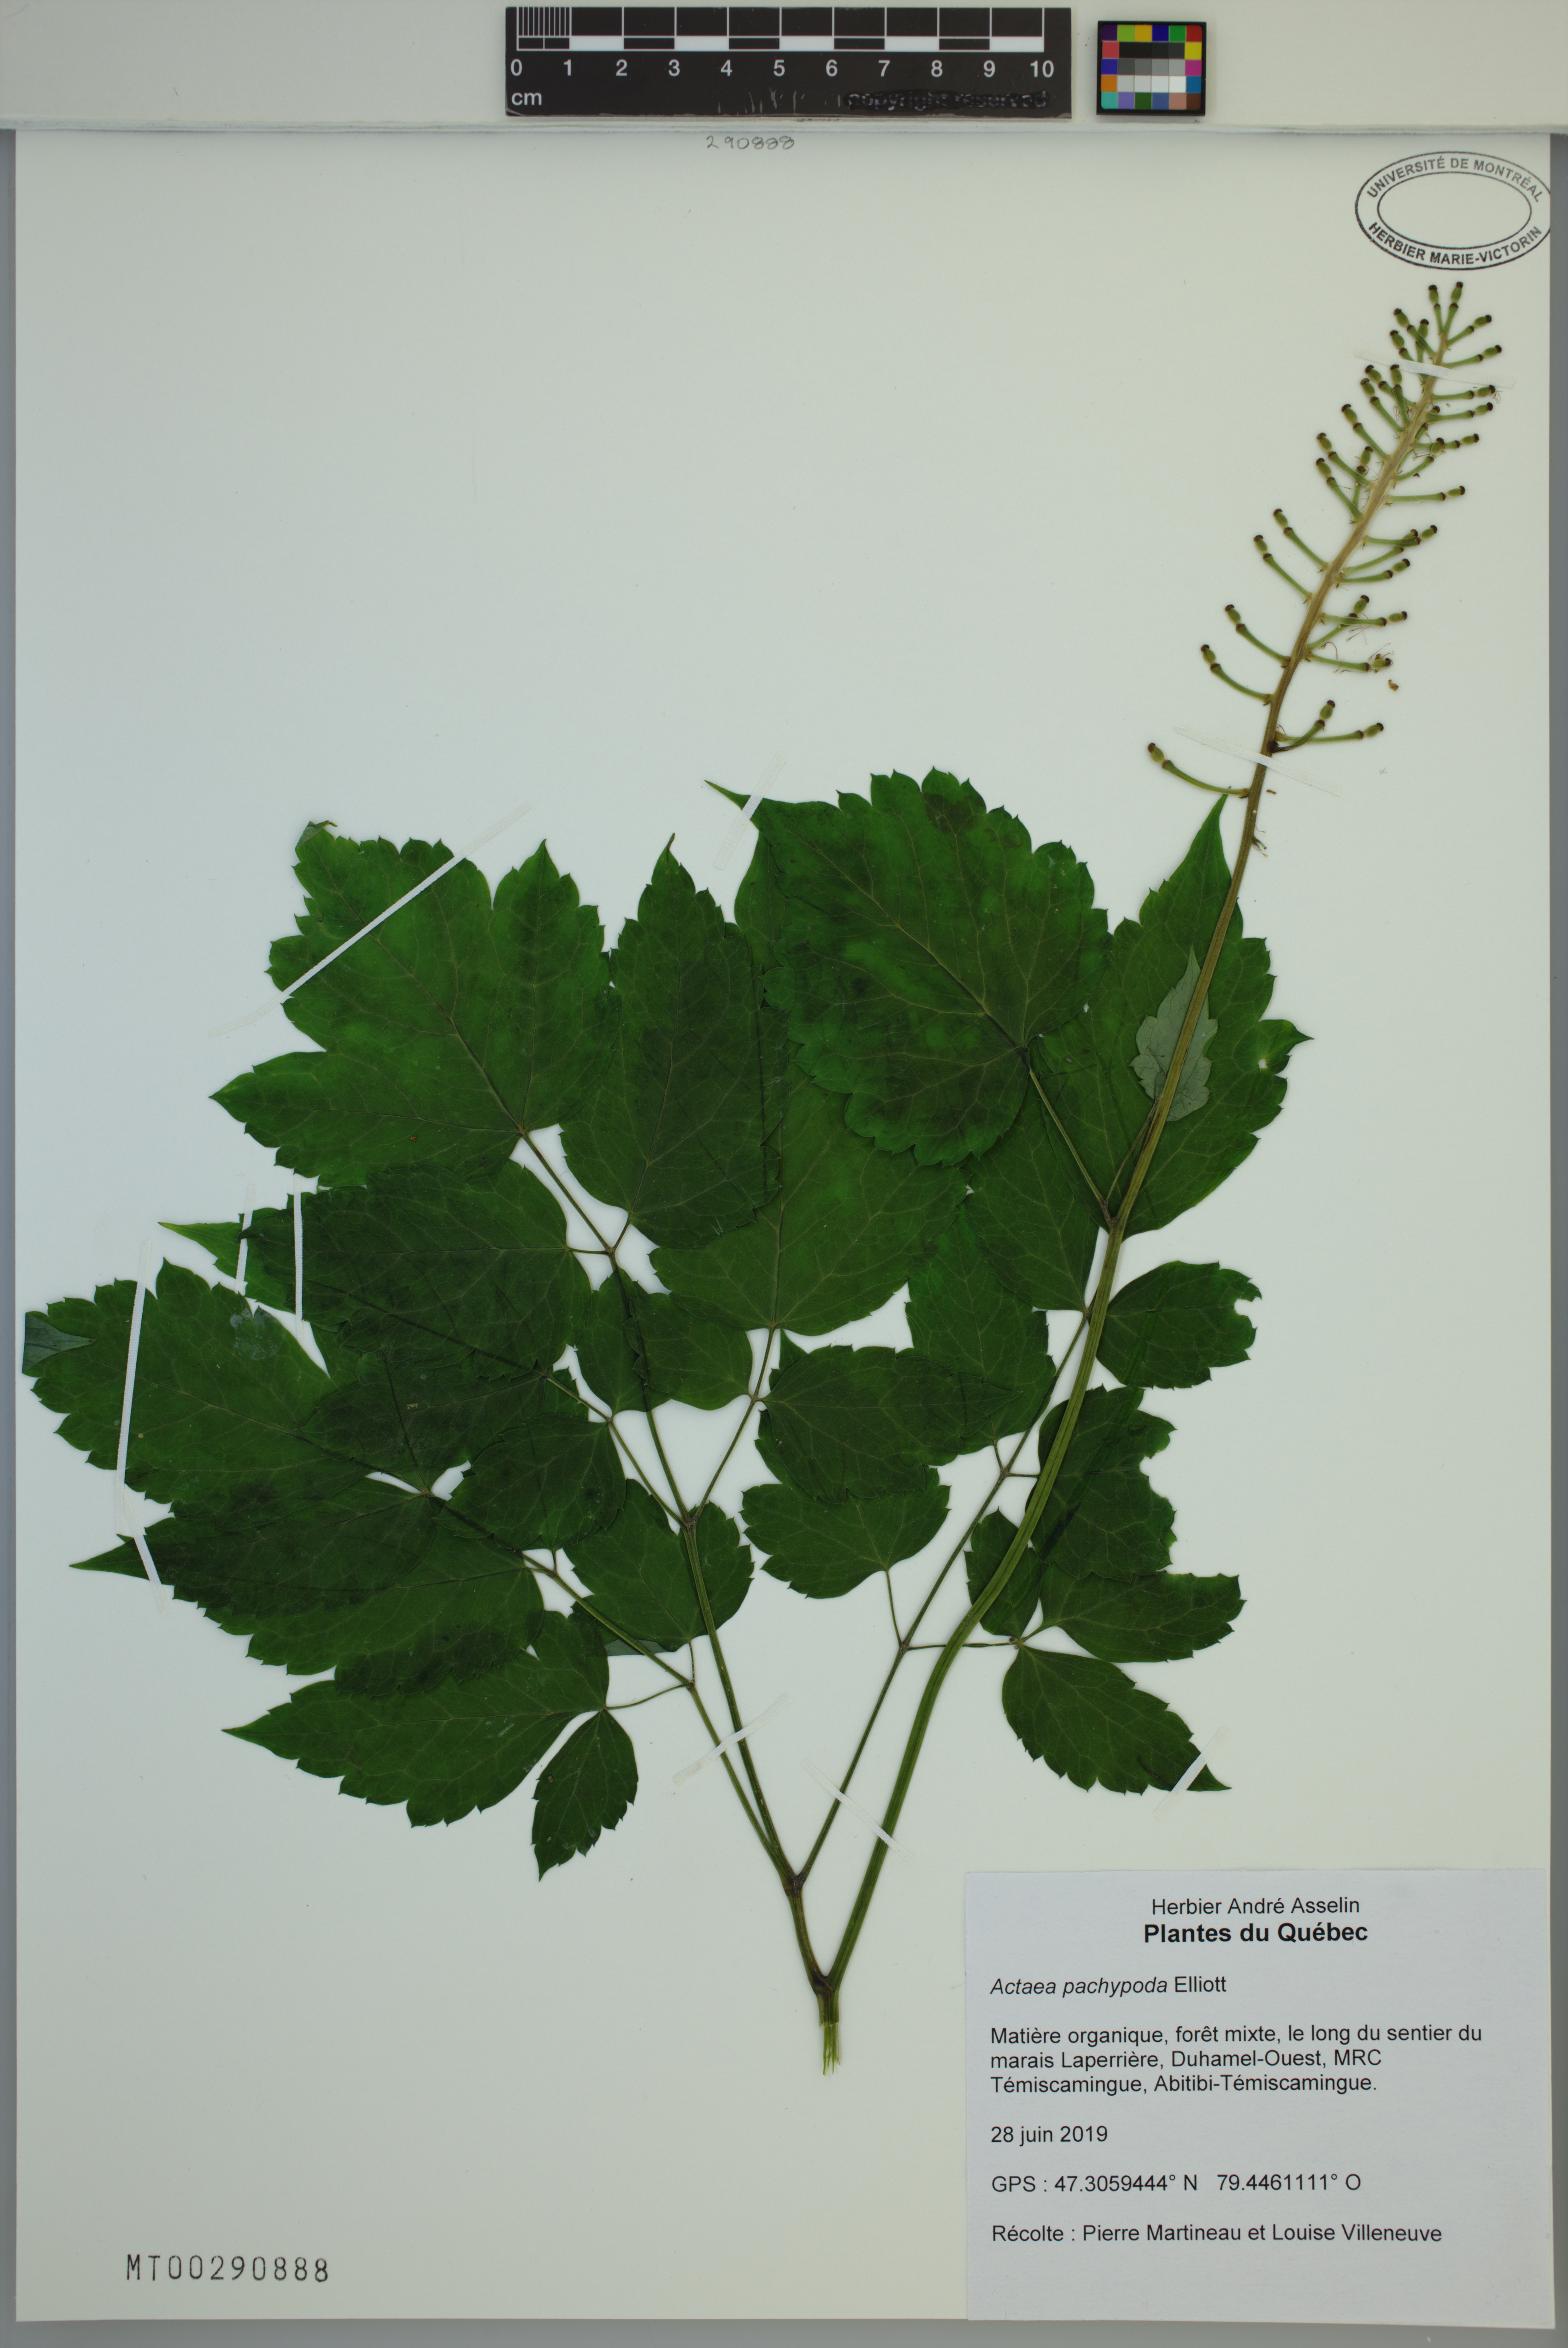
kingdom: Plantae
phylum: Tracheophyta
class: Magnoliopsida
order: Ranunculales
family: Ranunculaceae
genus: Actaea
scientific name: Actaea pachypoda
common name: Doll's-eyes
